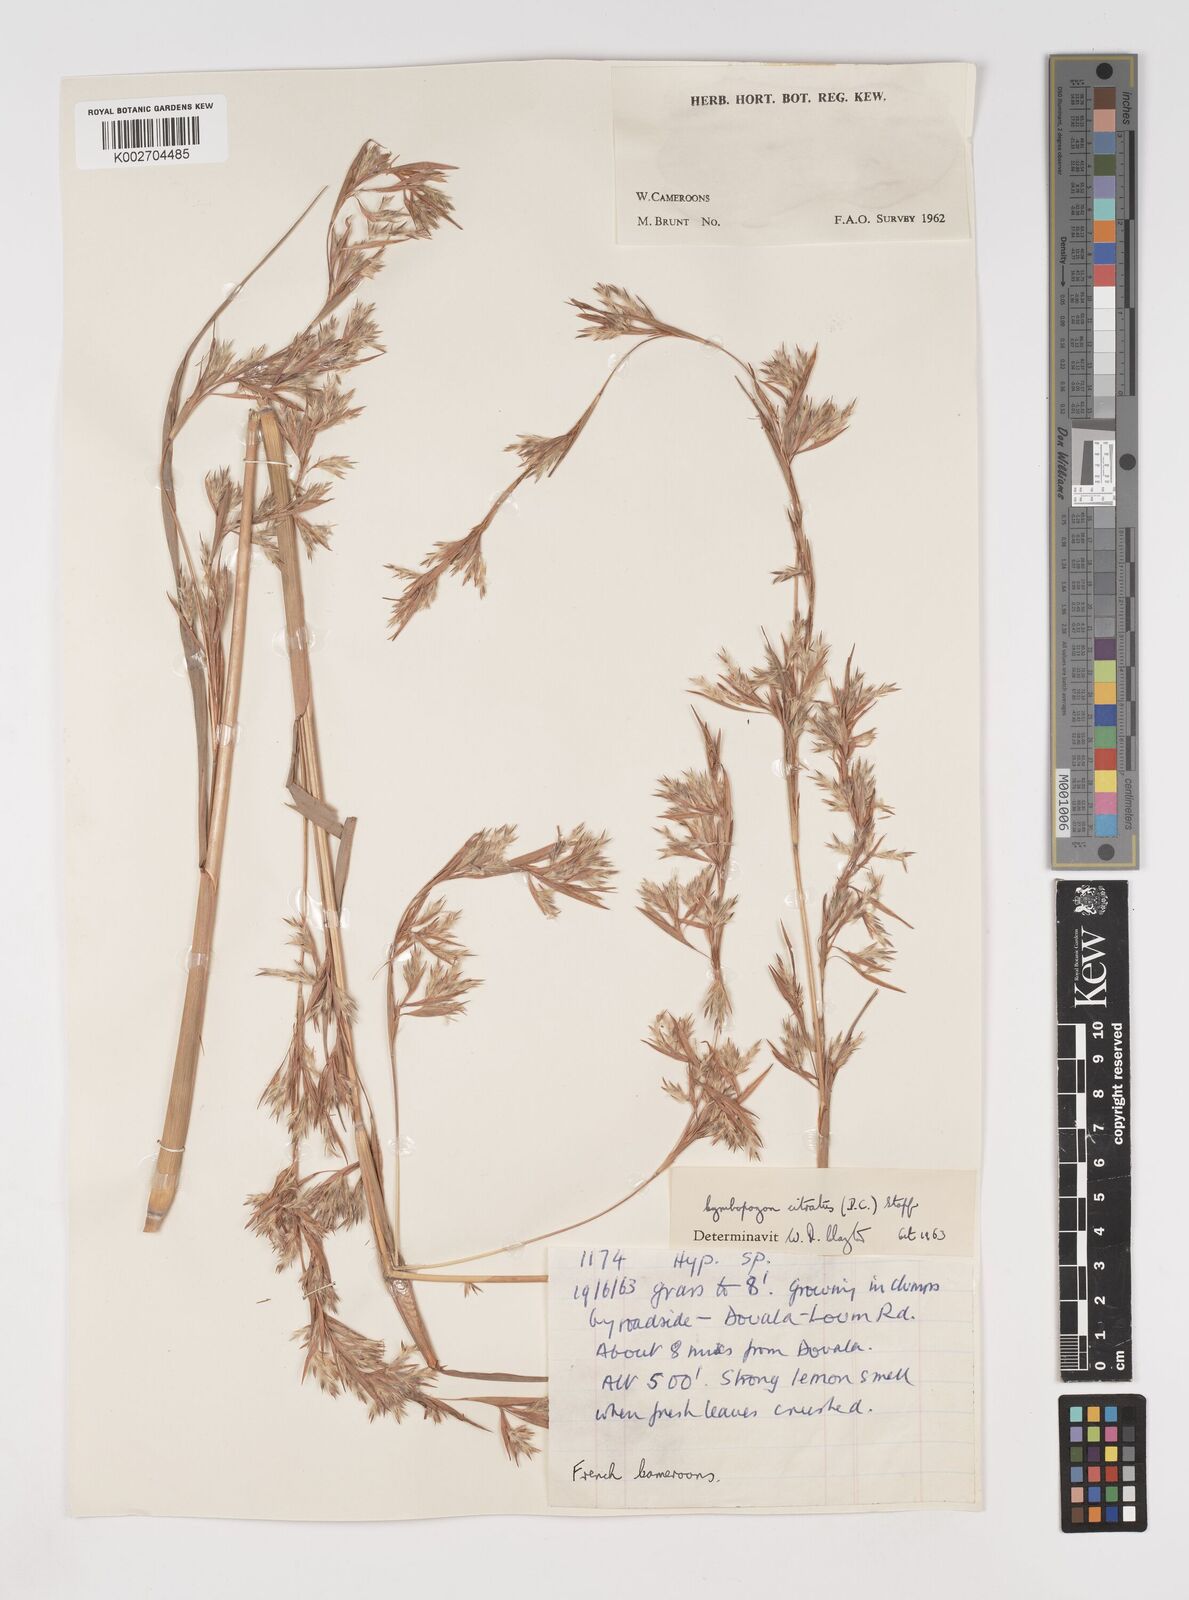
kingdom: Plantae
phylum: Tracheophyta
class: Liliopsida
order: Poales
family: Poaceae
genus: Cymbopogon
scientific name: Cymbopogon citratus
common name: Lemon grass
